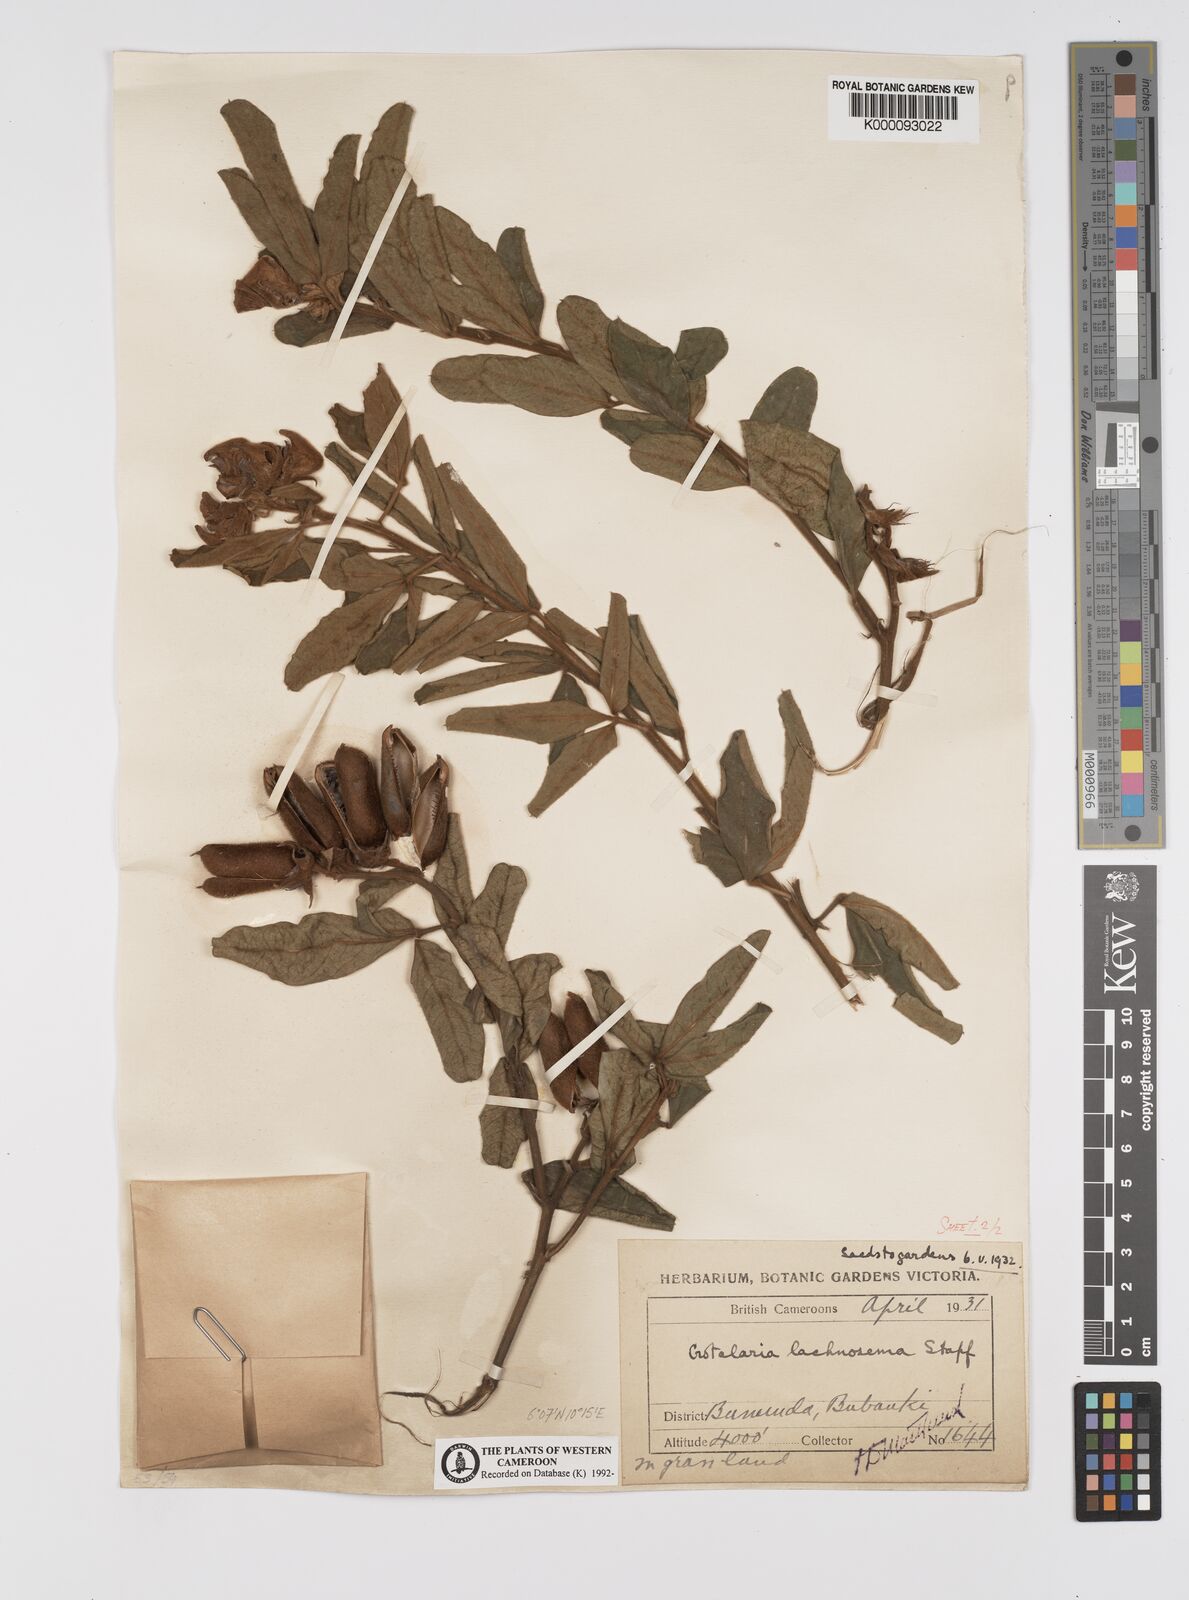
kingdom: Plantae
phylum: Tracheophyta
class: Magnoliopsida
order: Fabales
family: Fabaceae
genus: Crotalaria
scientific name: Crotalaria lachnosema
